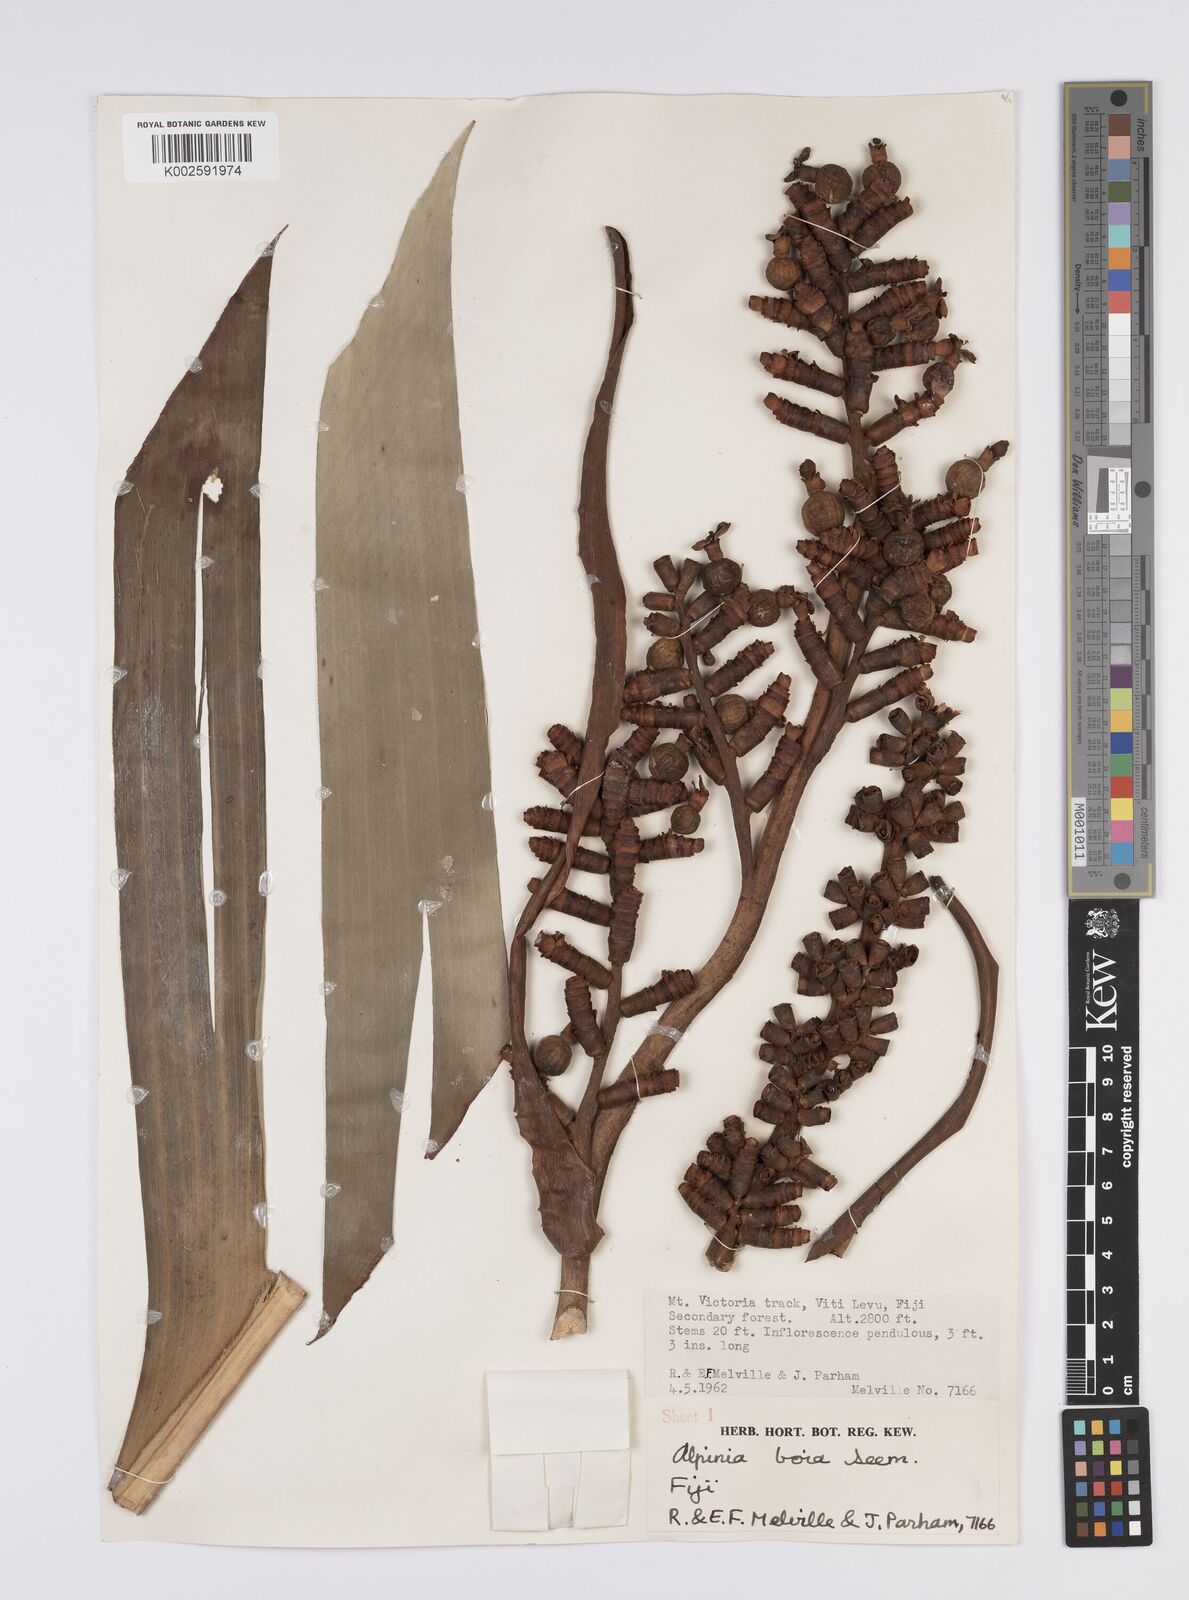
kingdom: Plantae
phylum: Tracheophyta
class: Liliopsida
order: Zingiberales
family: Zingiberaceae
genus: Alpinia
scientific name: Alpinia boia
